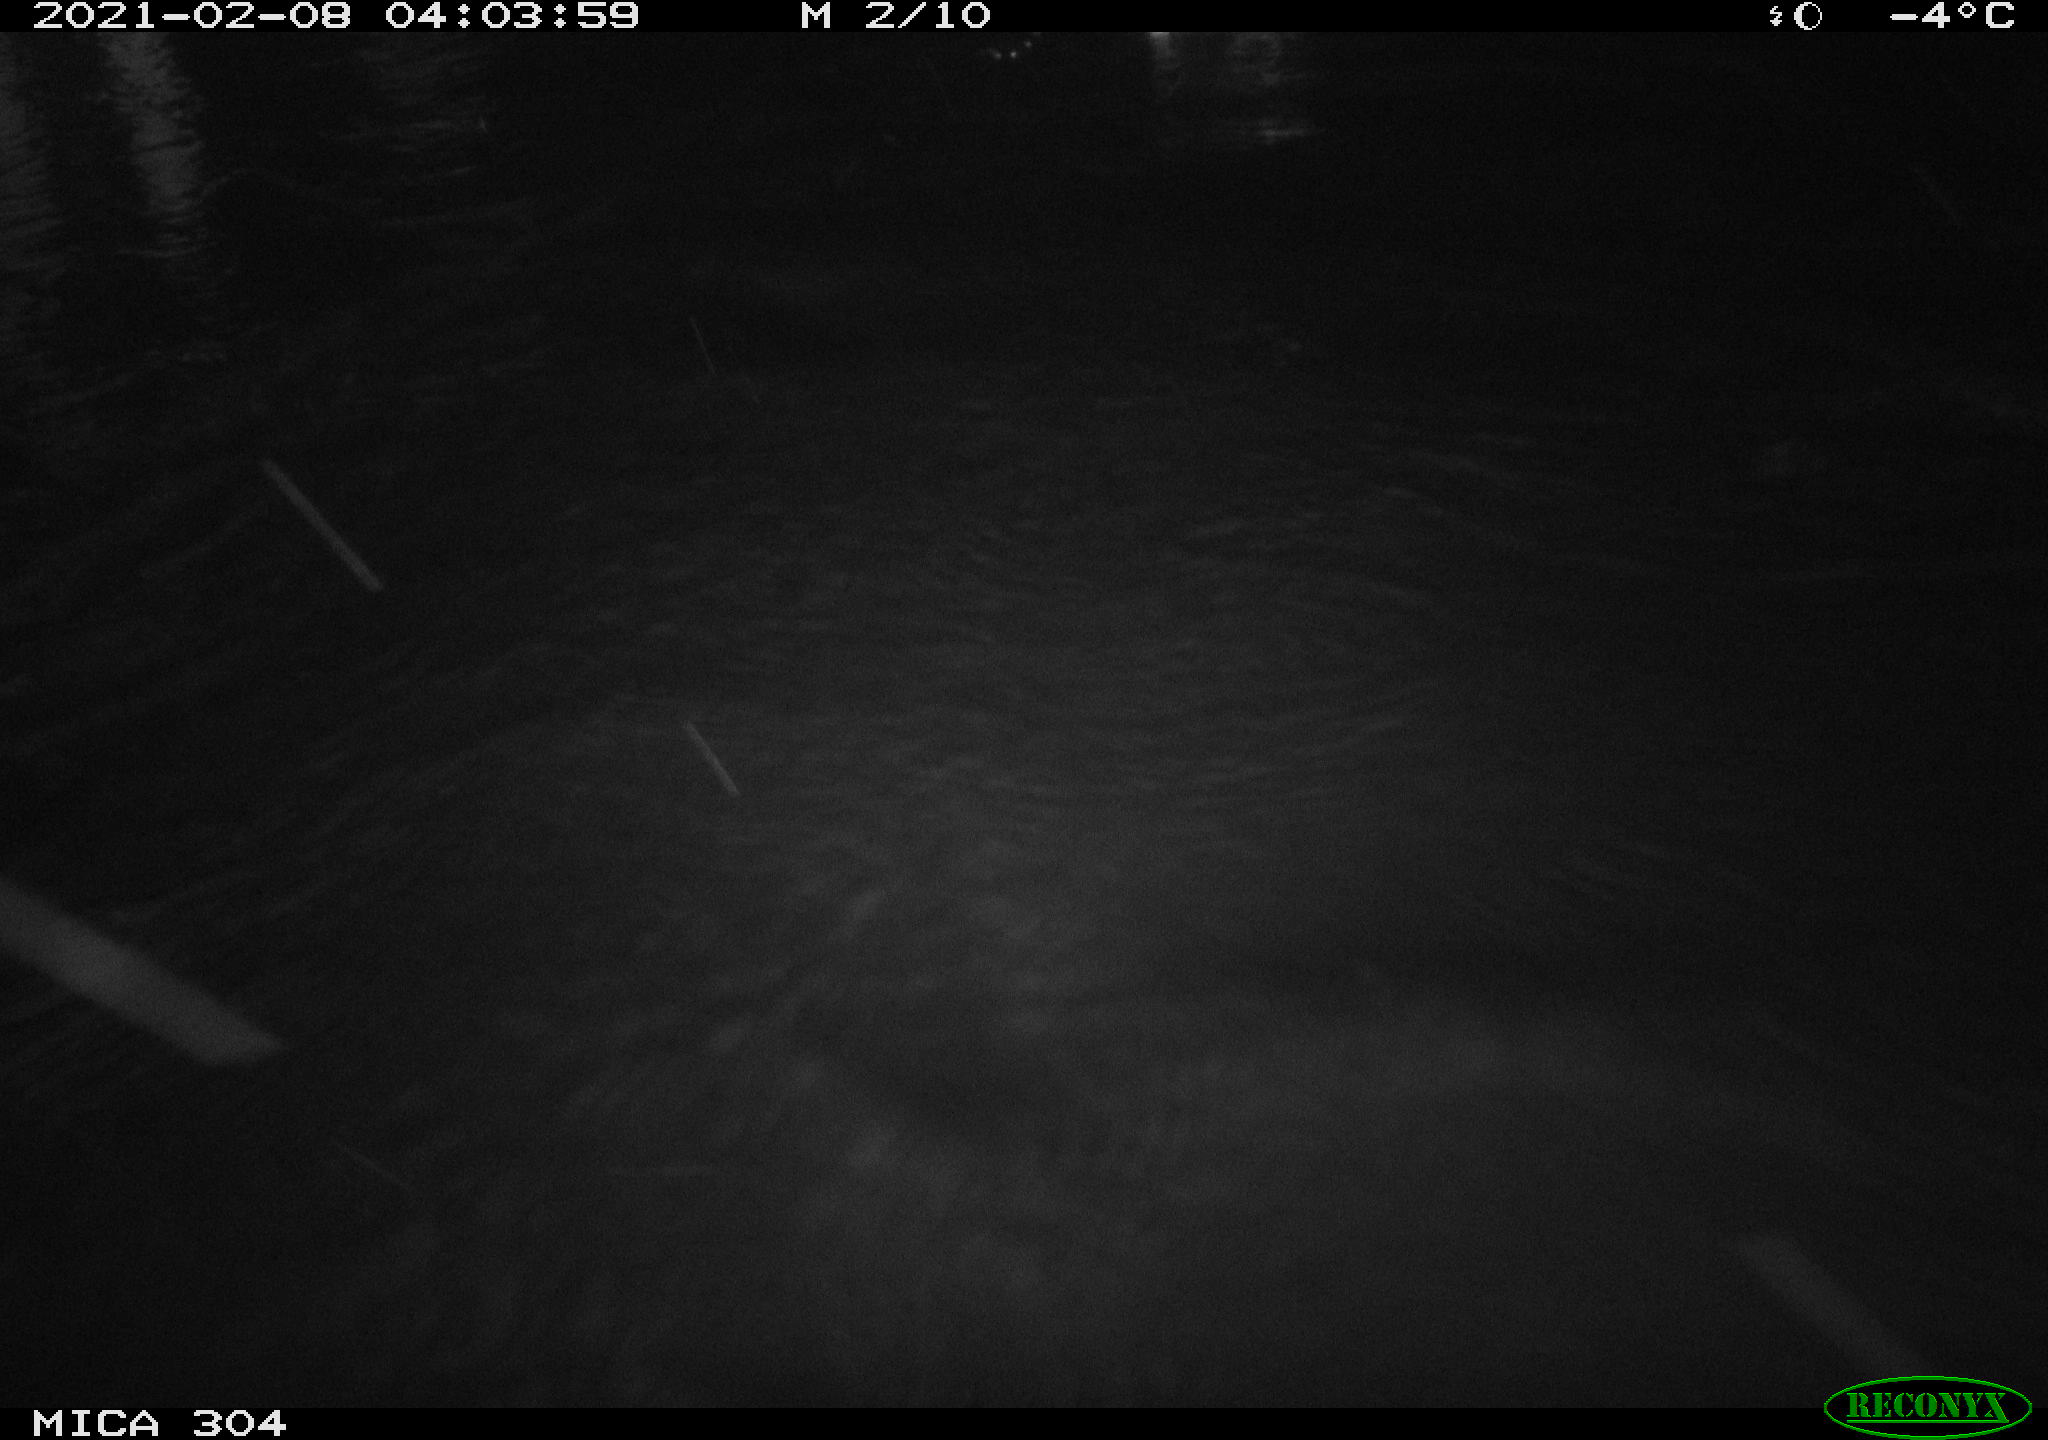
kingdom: Animalia
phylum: Chordata
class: Aves
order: Anseriformes
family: Anatidae
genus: Anas
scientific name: Anas platyrhynchos
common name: Mallard
